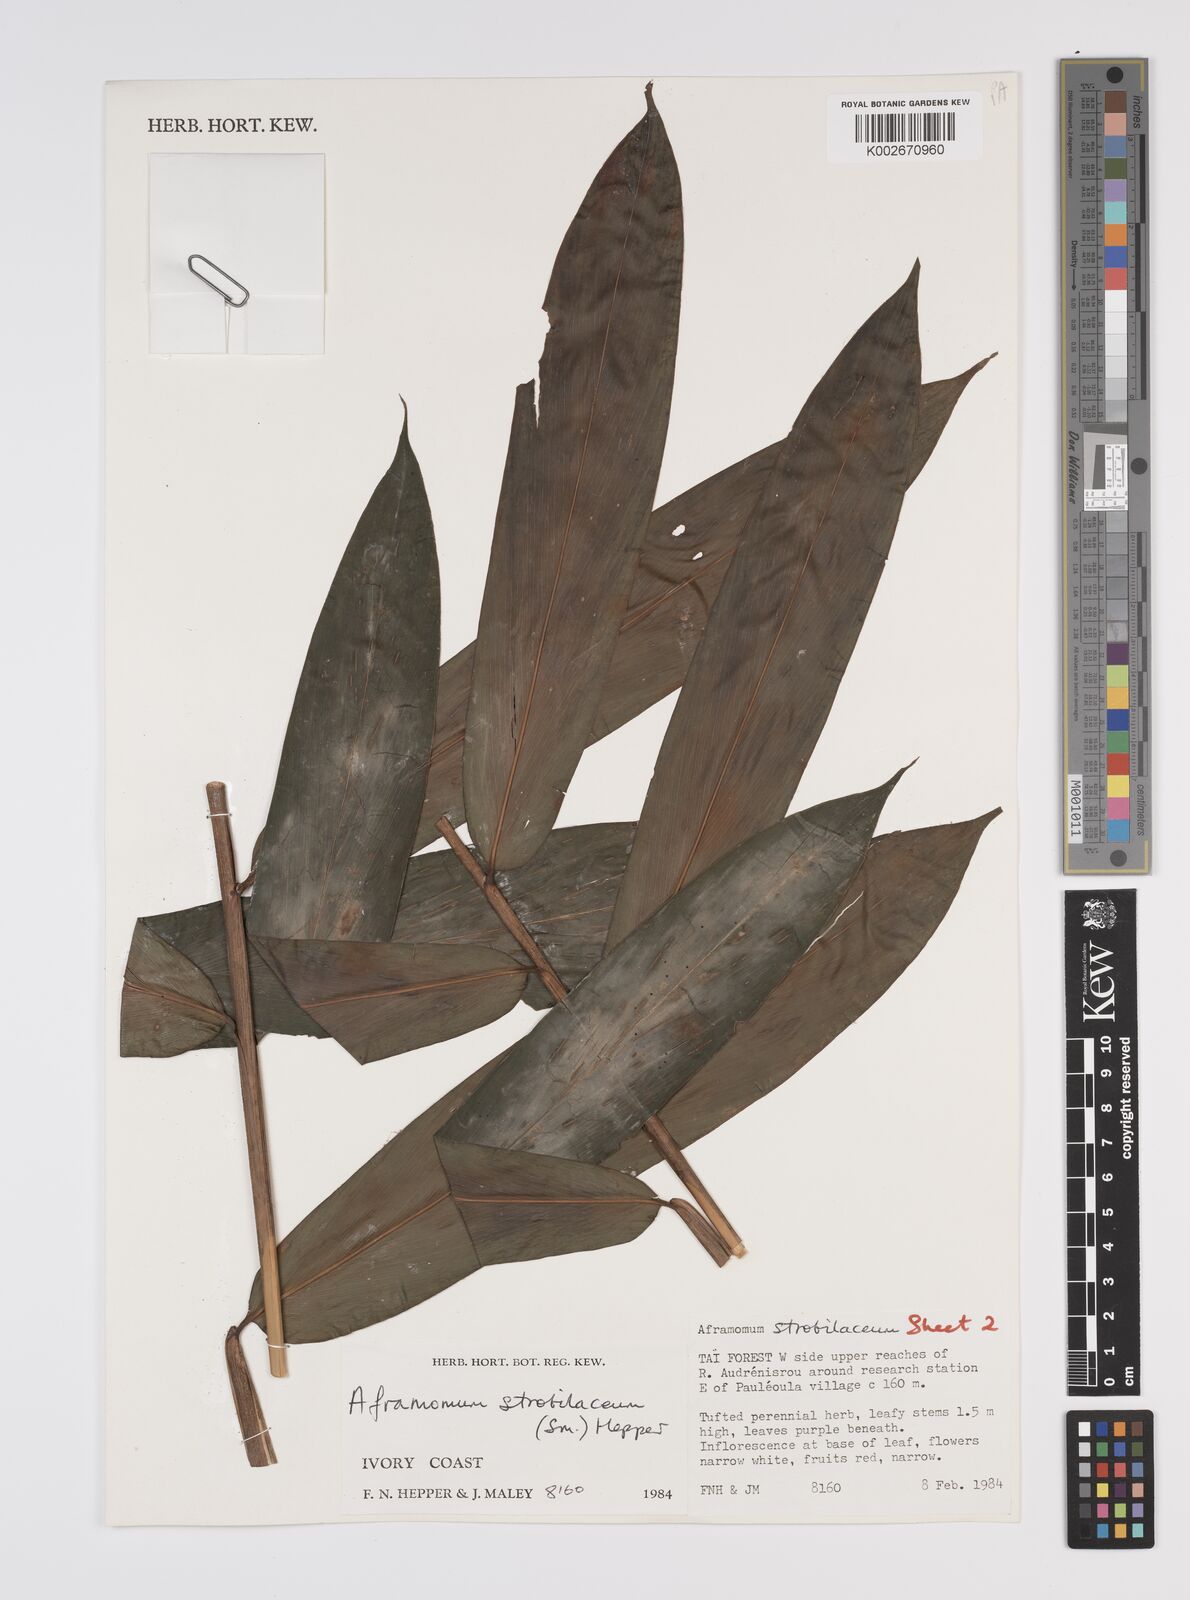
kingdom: Plantae
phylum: Tracheophyta
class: Liliopsida
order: Zingiberales
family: Zingiberaceae
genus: Aframomum
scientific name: Aframomum strobilaceum
